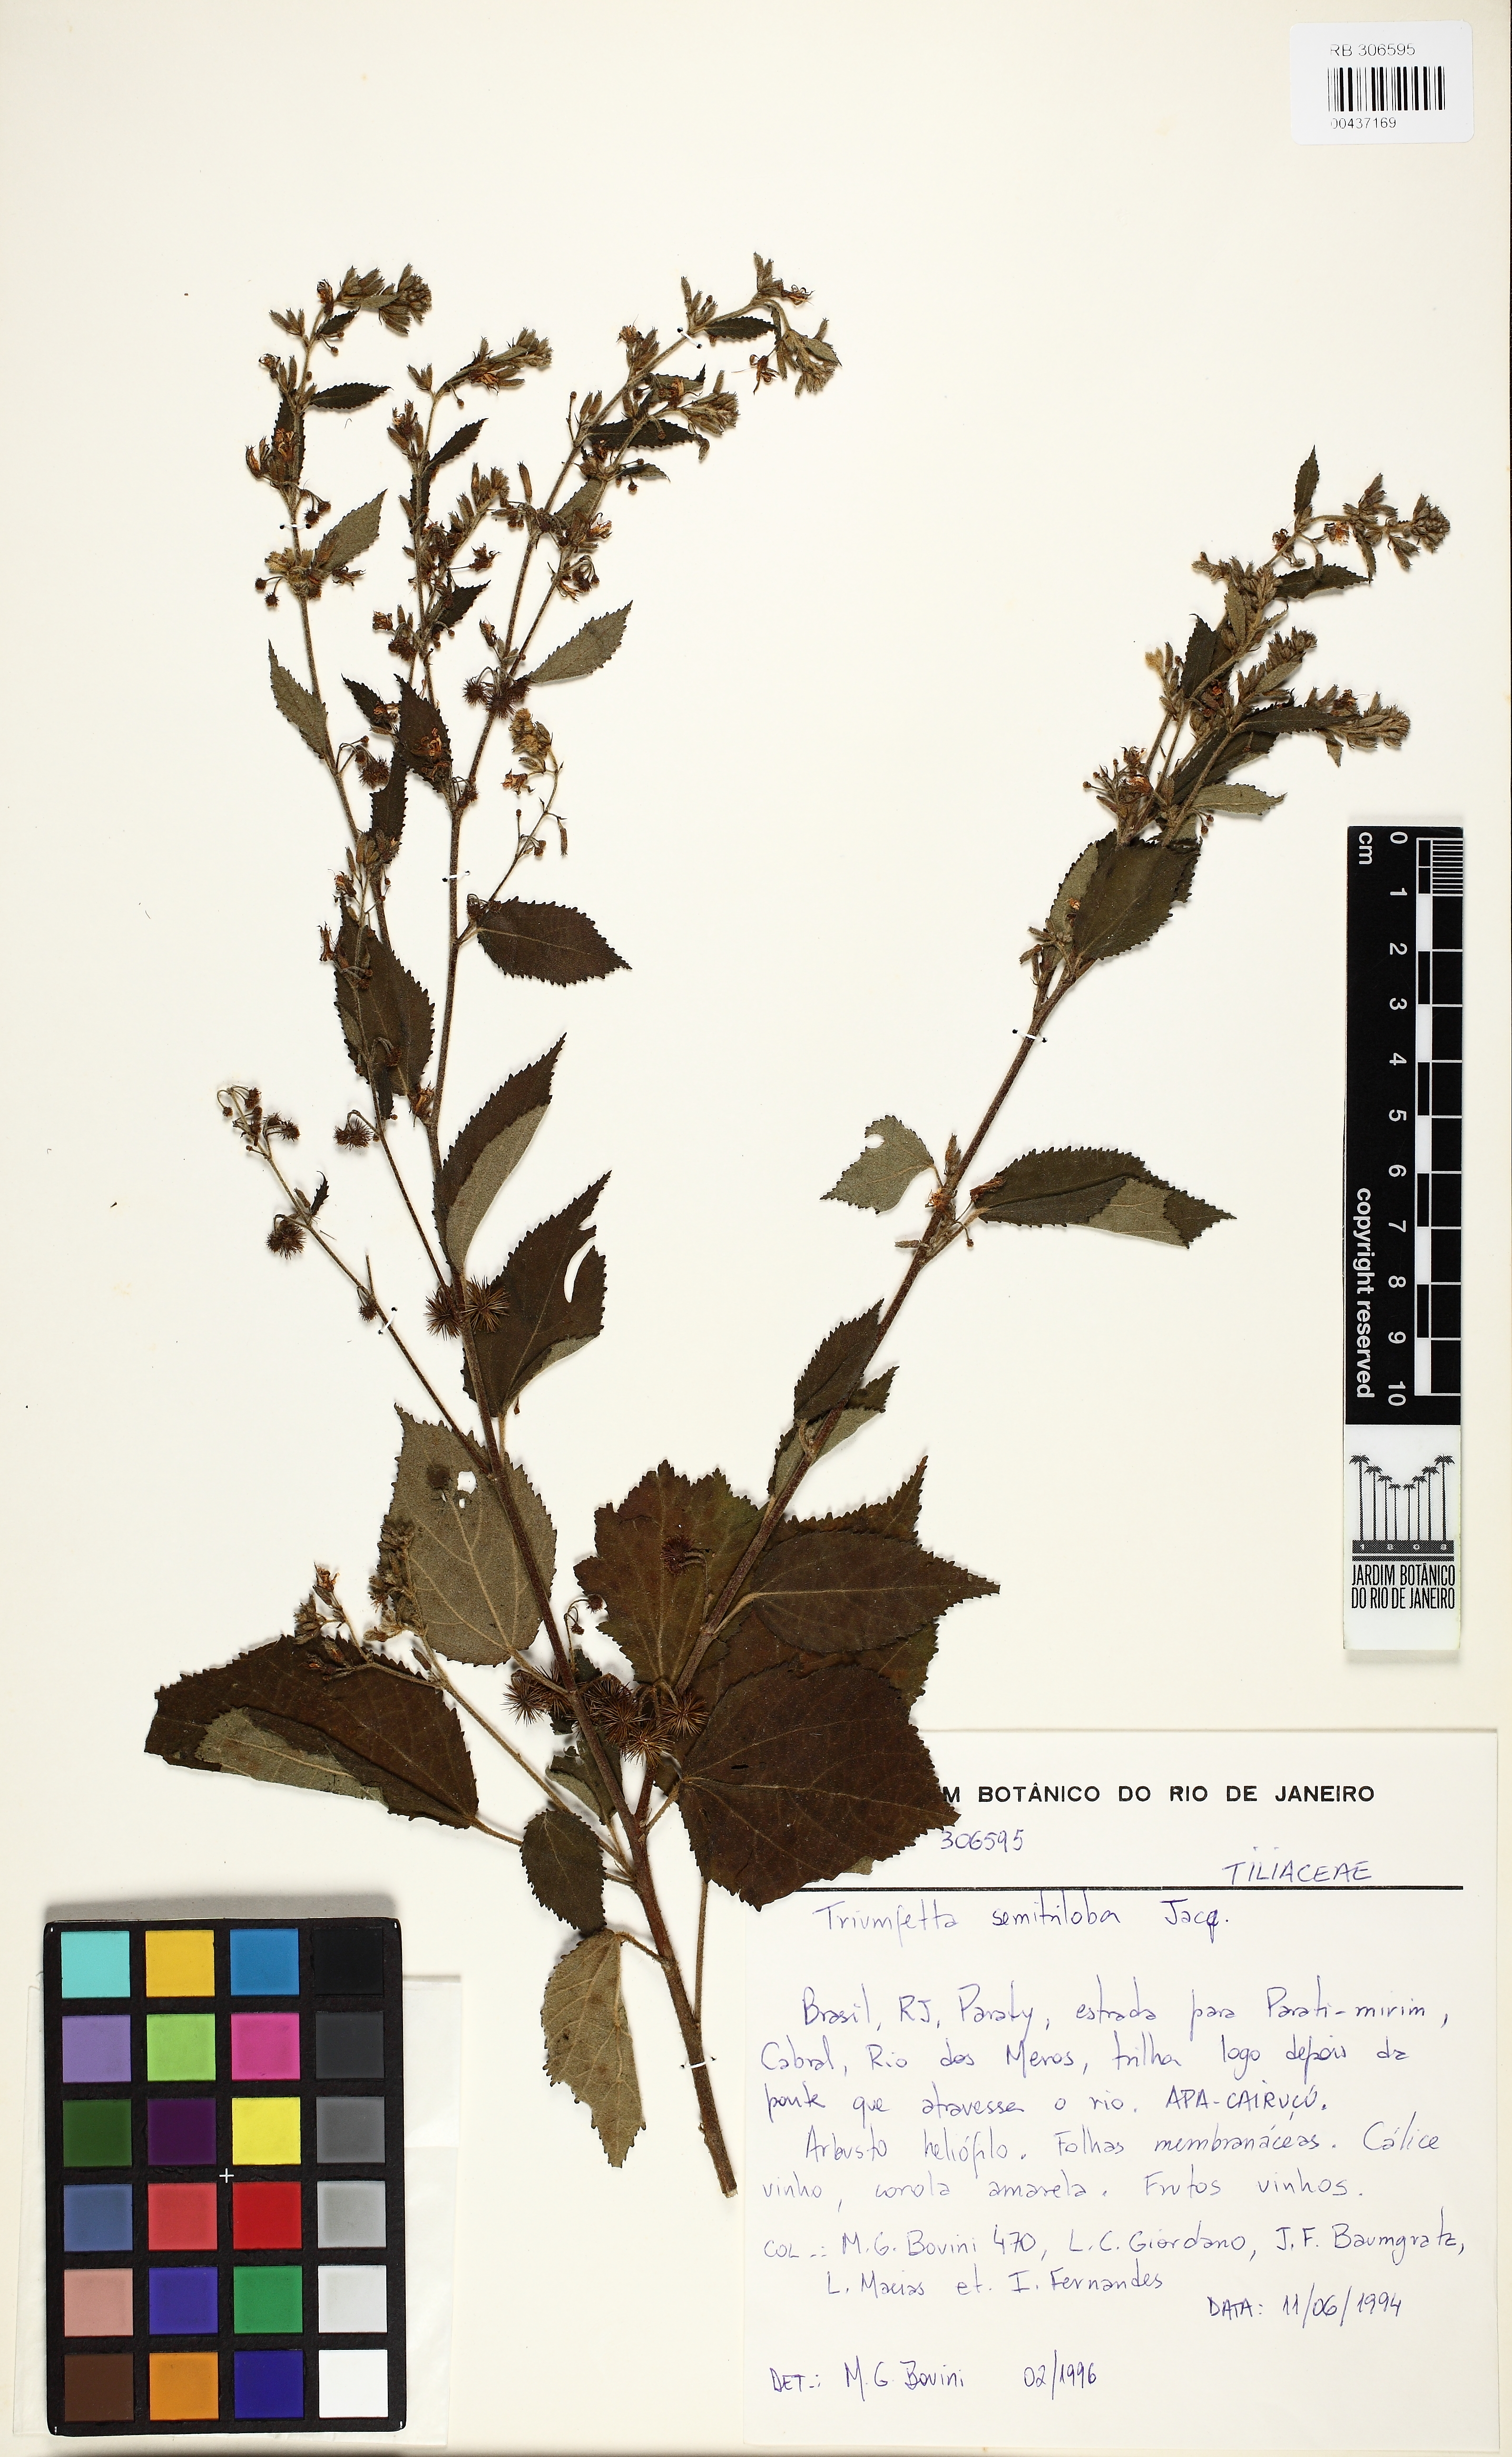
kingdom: Plantae
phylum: Tracheophyta
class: Magnoliopsida
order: Malvales
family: Malvaceae
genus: Triumfetta
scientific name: Triumfetta semitriloba
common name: Sacramento burbark
